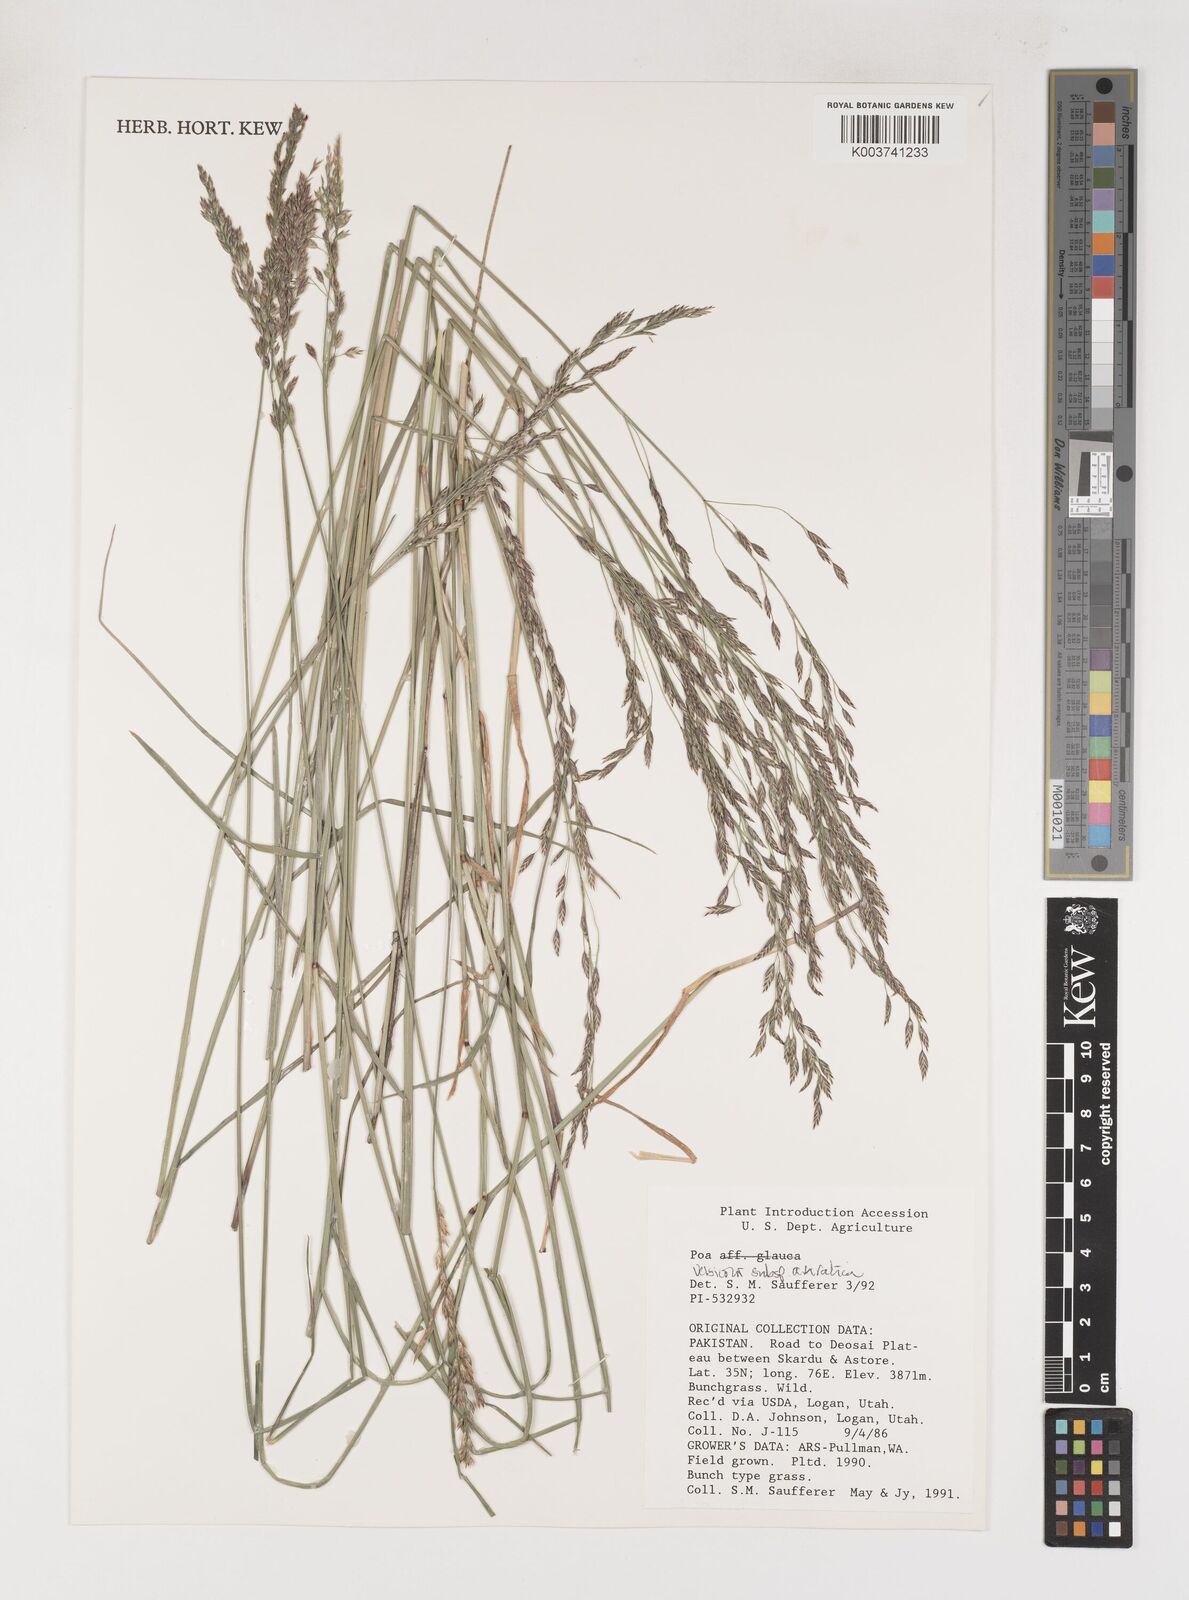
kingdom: Plantae
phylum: Tracheophyta
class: Liliopsida
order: Poales
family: Poaceae
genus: Poa
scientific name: Poa araratica
